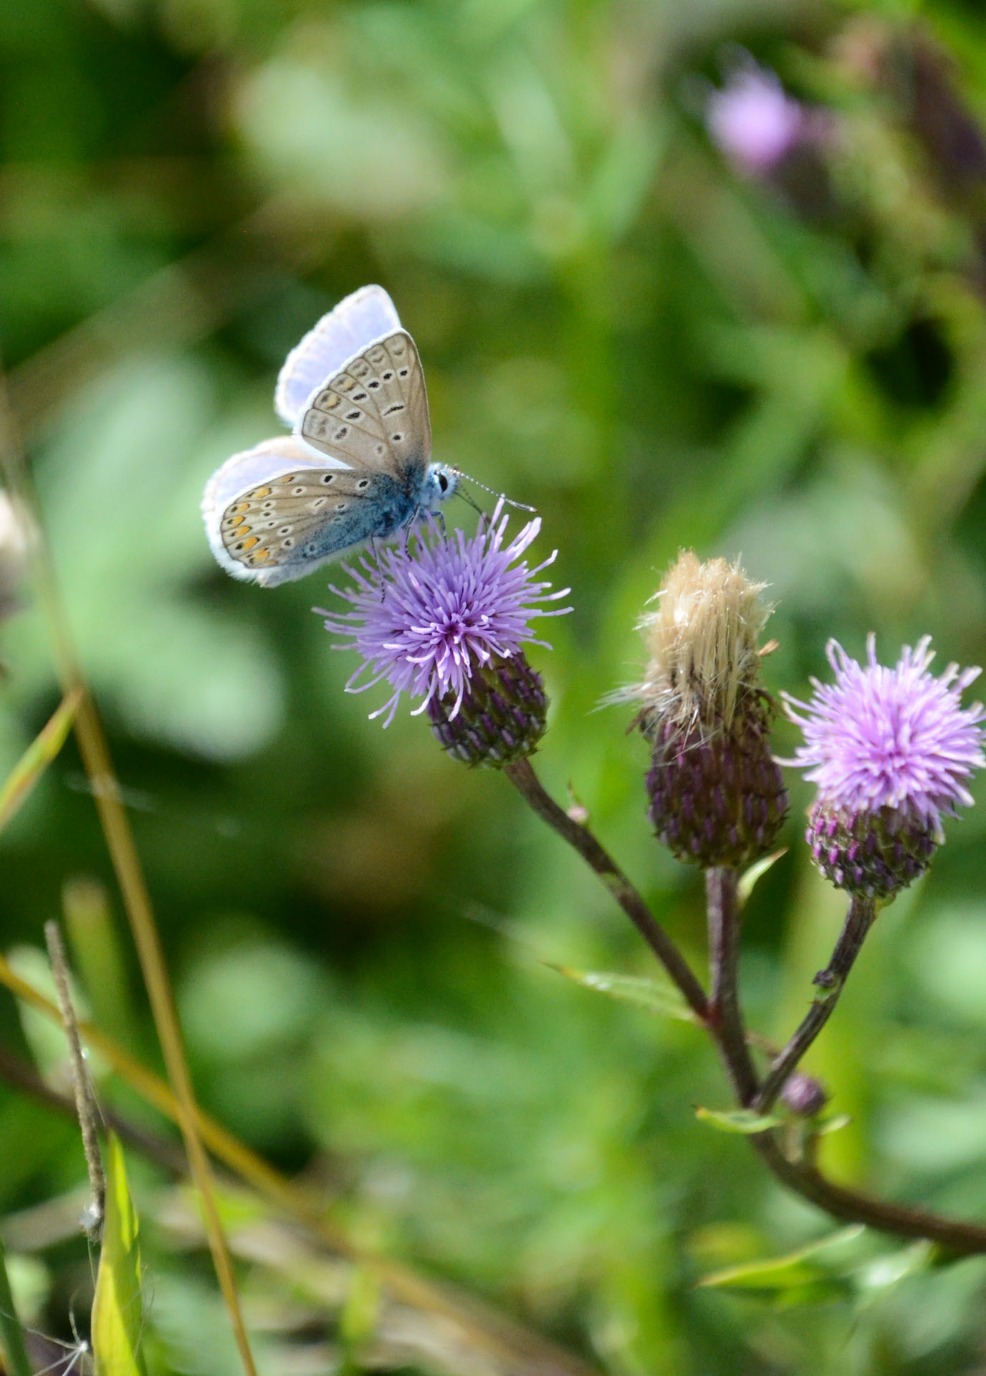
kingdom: Animalia
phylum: Arthropoda
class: Insecta
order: Lepidoptera
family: Lycaenidae
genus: Polyommatus
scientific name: Polyommatus icarus
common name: Almindelig blåfugl
